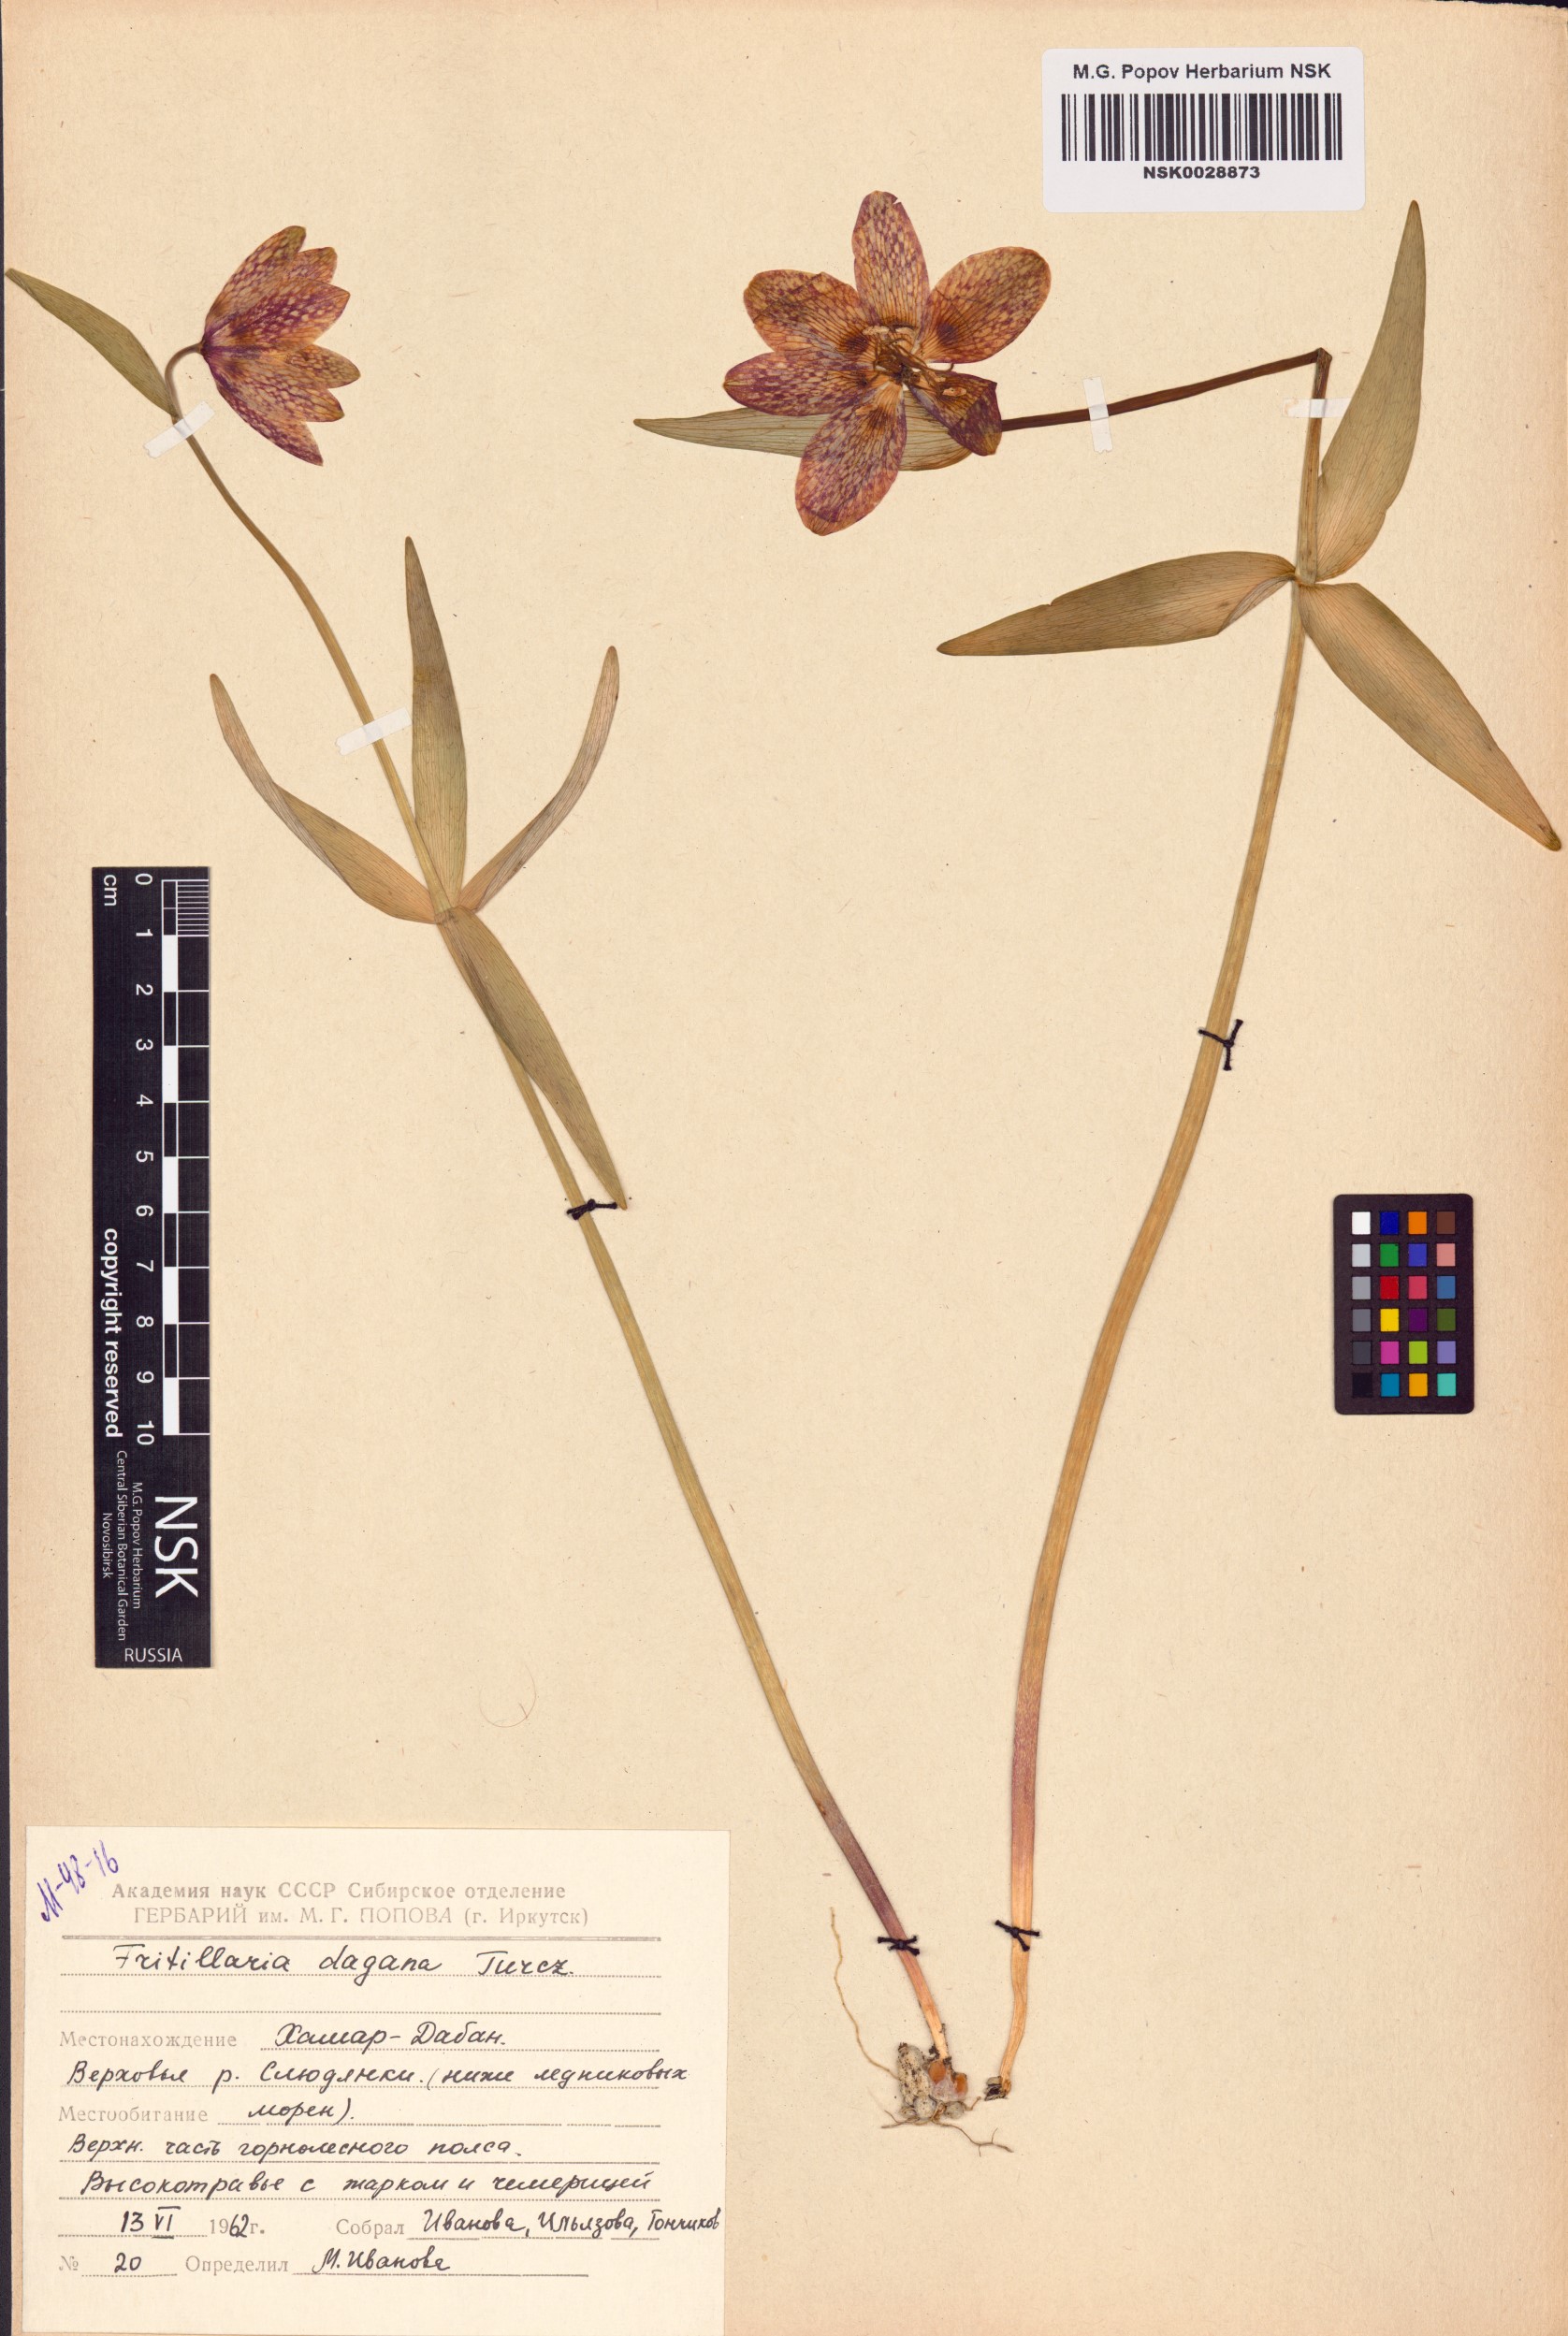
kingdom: Plantae
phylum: Tracheophyta
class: Liliopsida
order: Liliales
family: Liliaceae
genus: Fritillaria
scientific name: Fritillaria dagana
